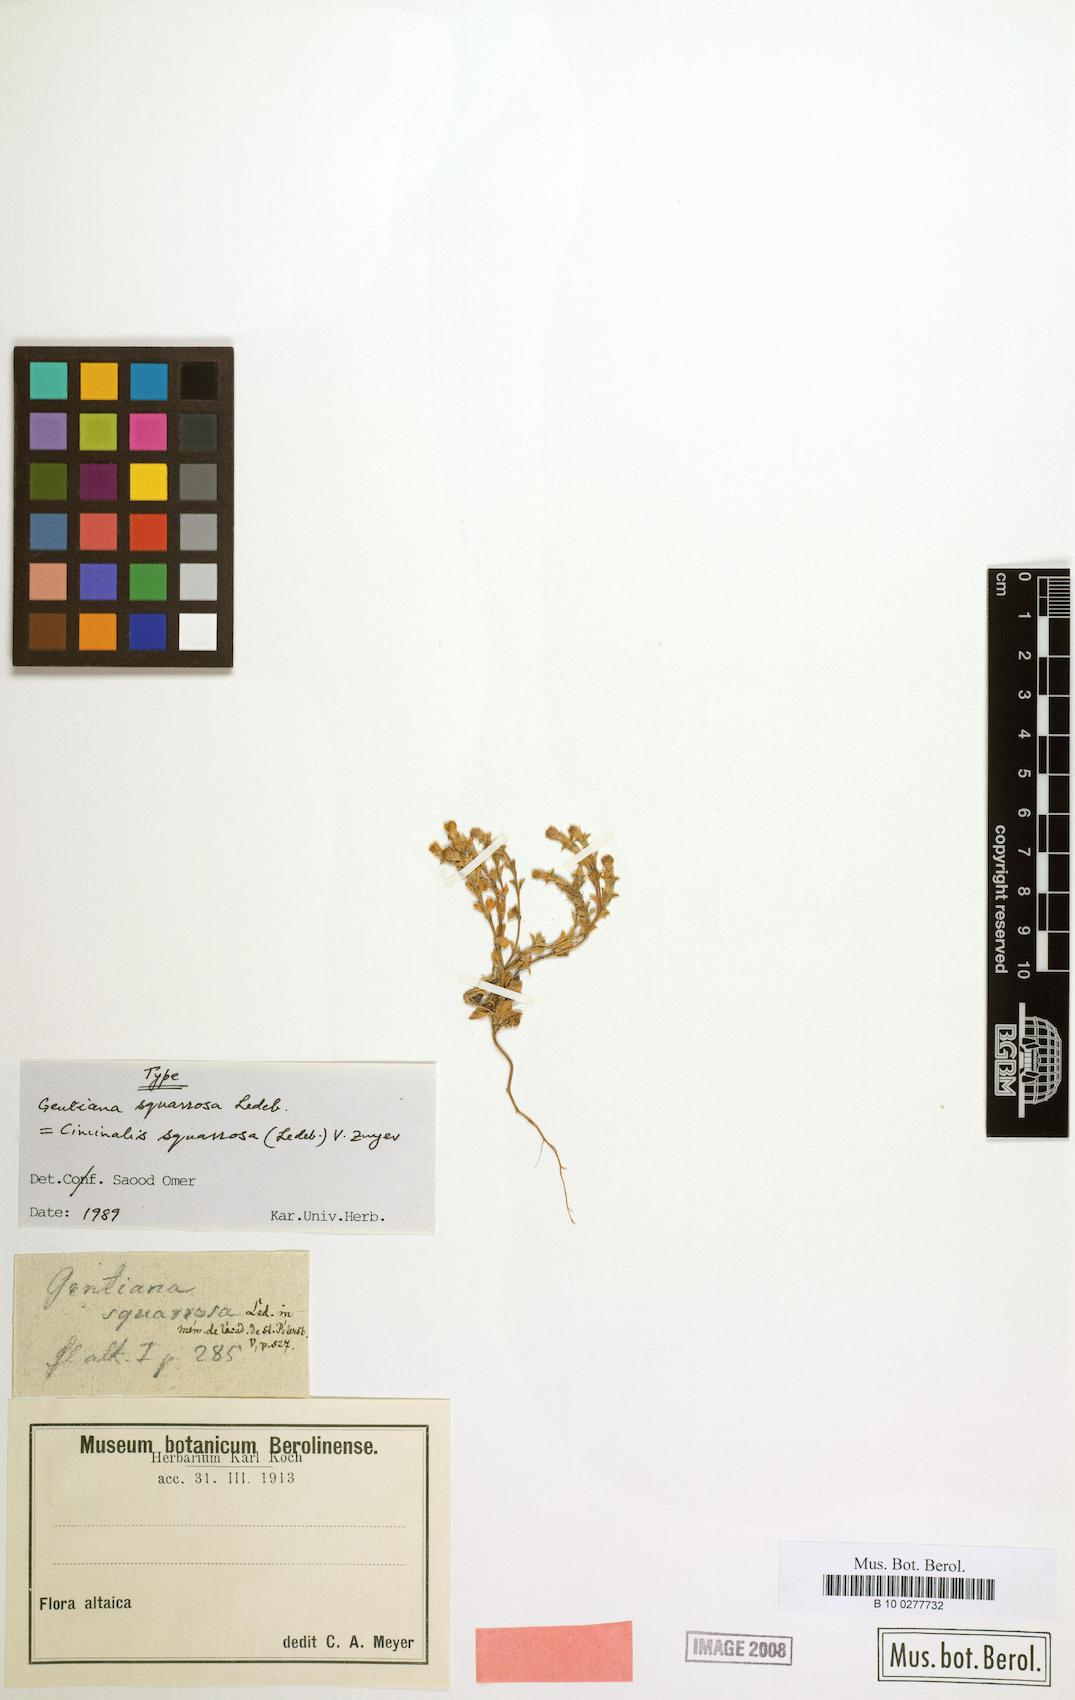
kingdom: Plantae
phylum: Tracheophyta
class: Magnoliopsida
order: Gentianales
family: Gentianaceae
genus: Gentiana
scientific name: Gentiana squarrosa
